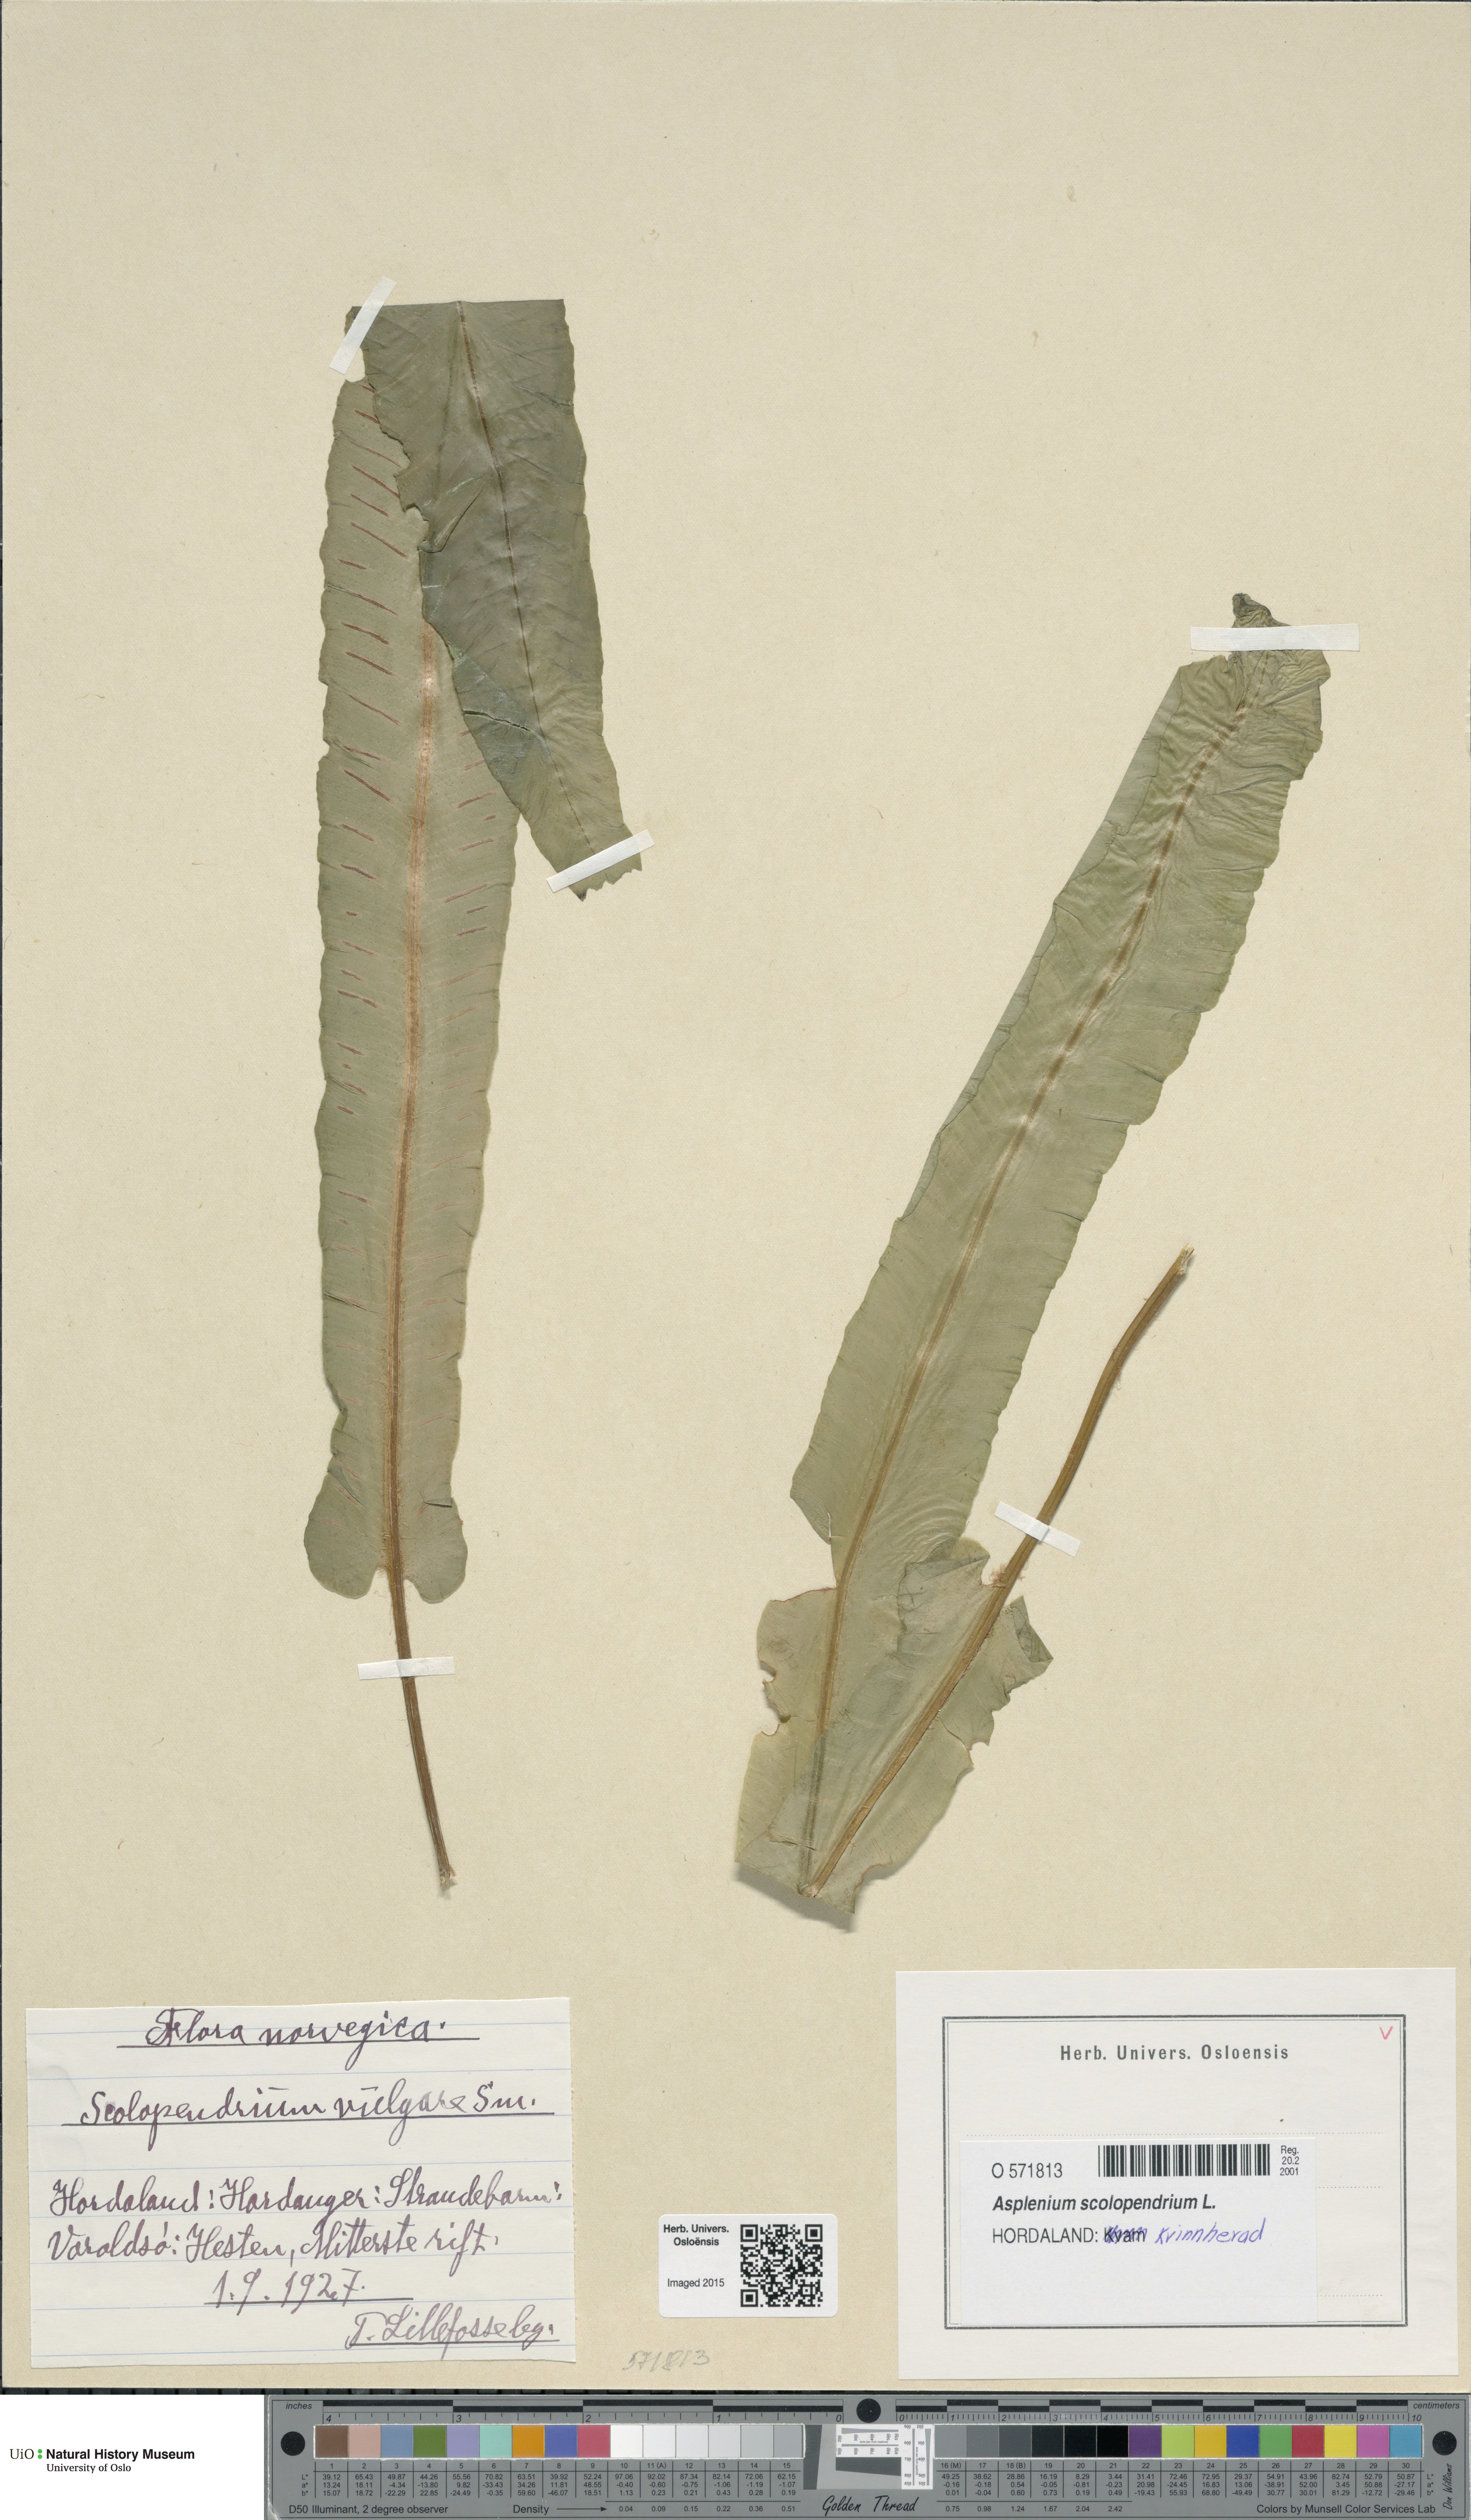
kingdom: Plantae
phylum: Tracheophyta
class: Polypodiopsida
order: Polypodiales
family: Aspleniaceae
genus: Asplenium
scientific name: Asplenium scolopendrium
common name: Hart's-tongue fern
